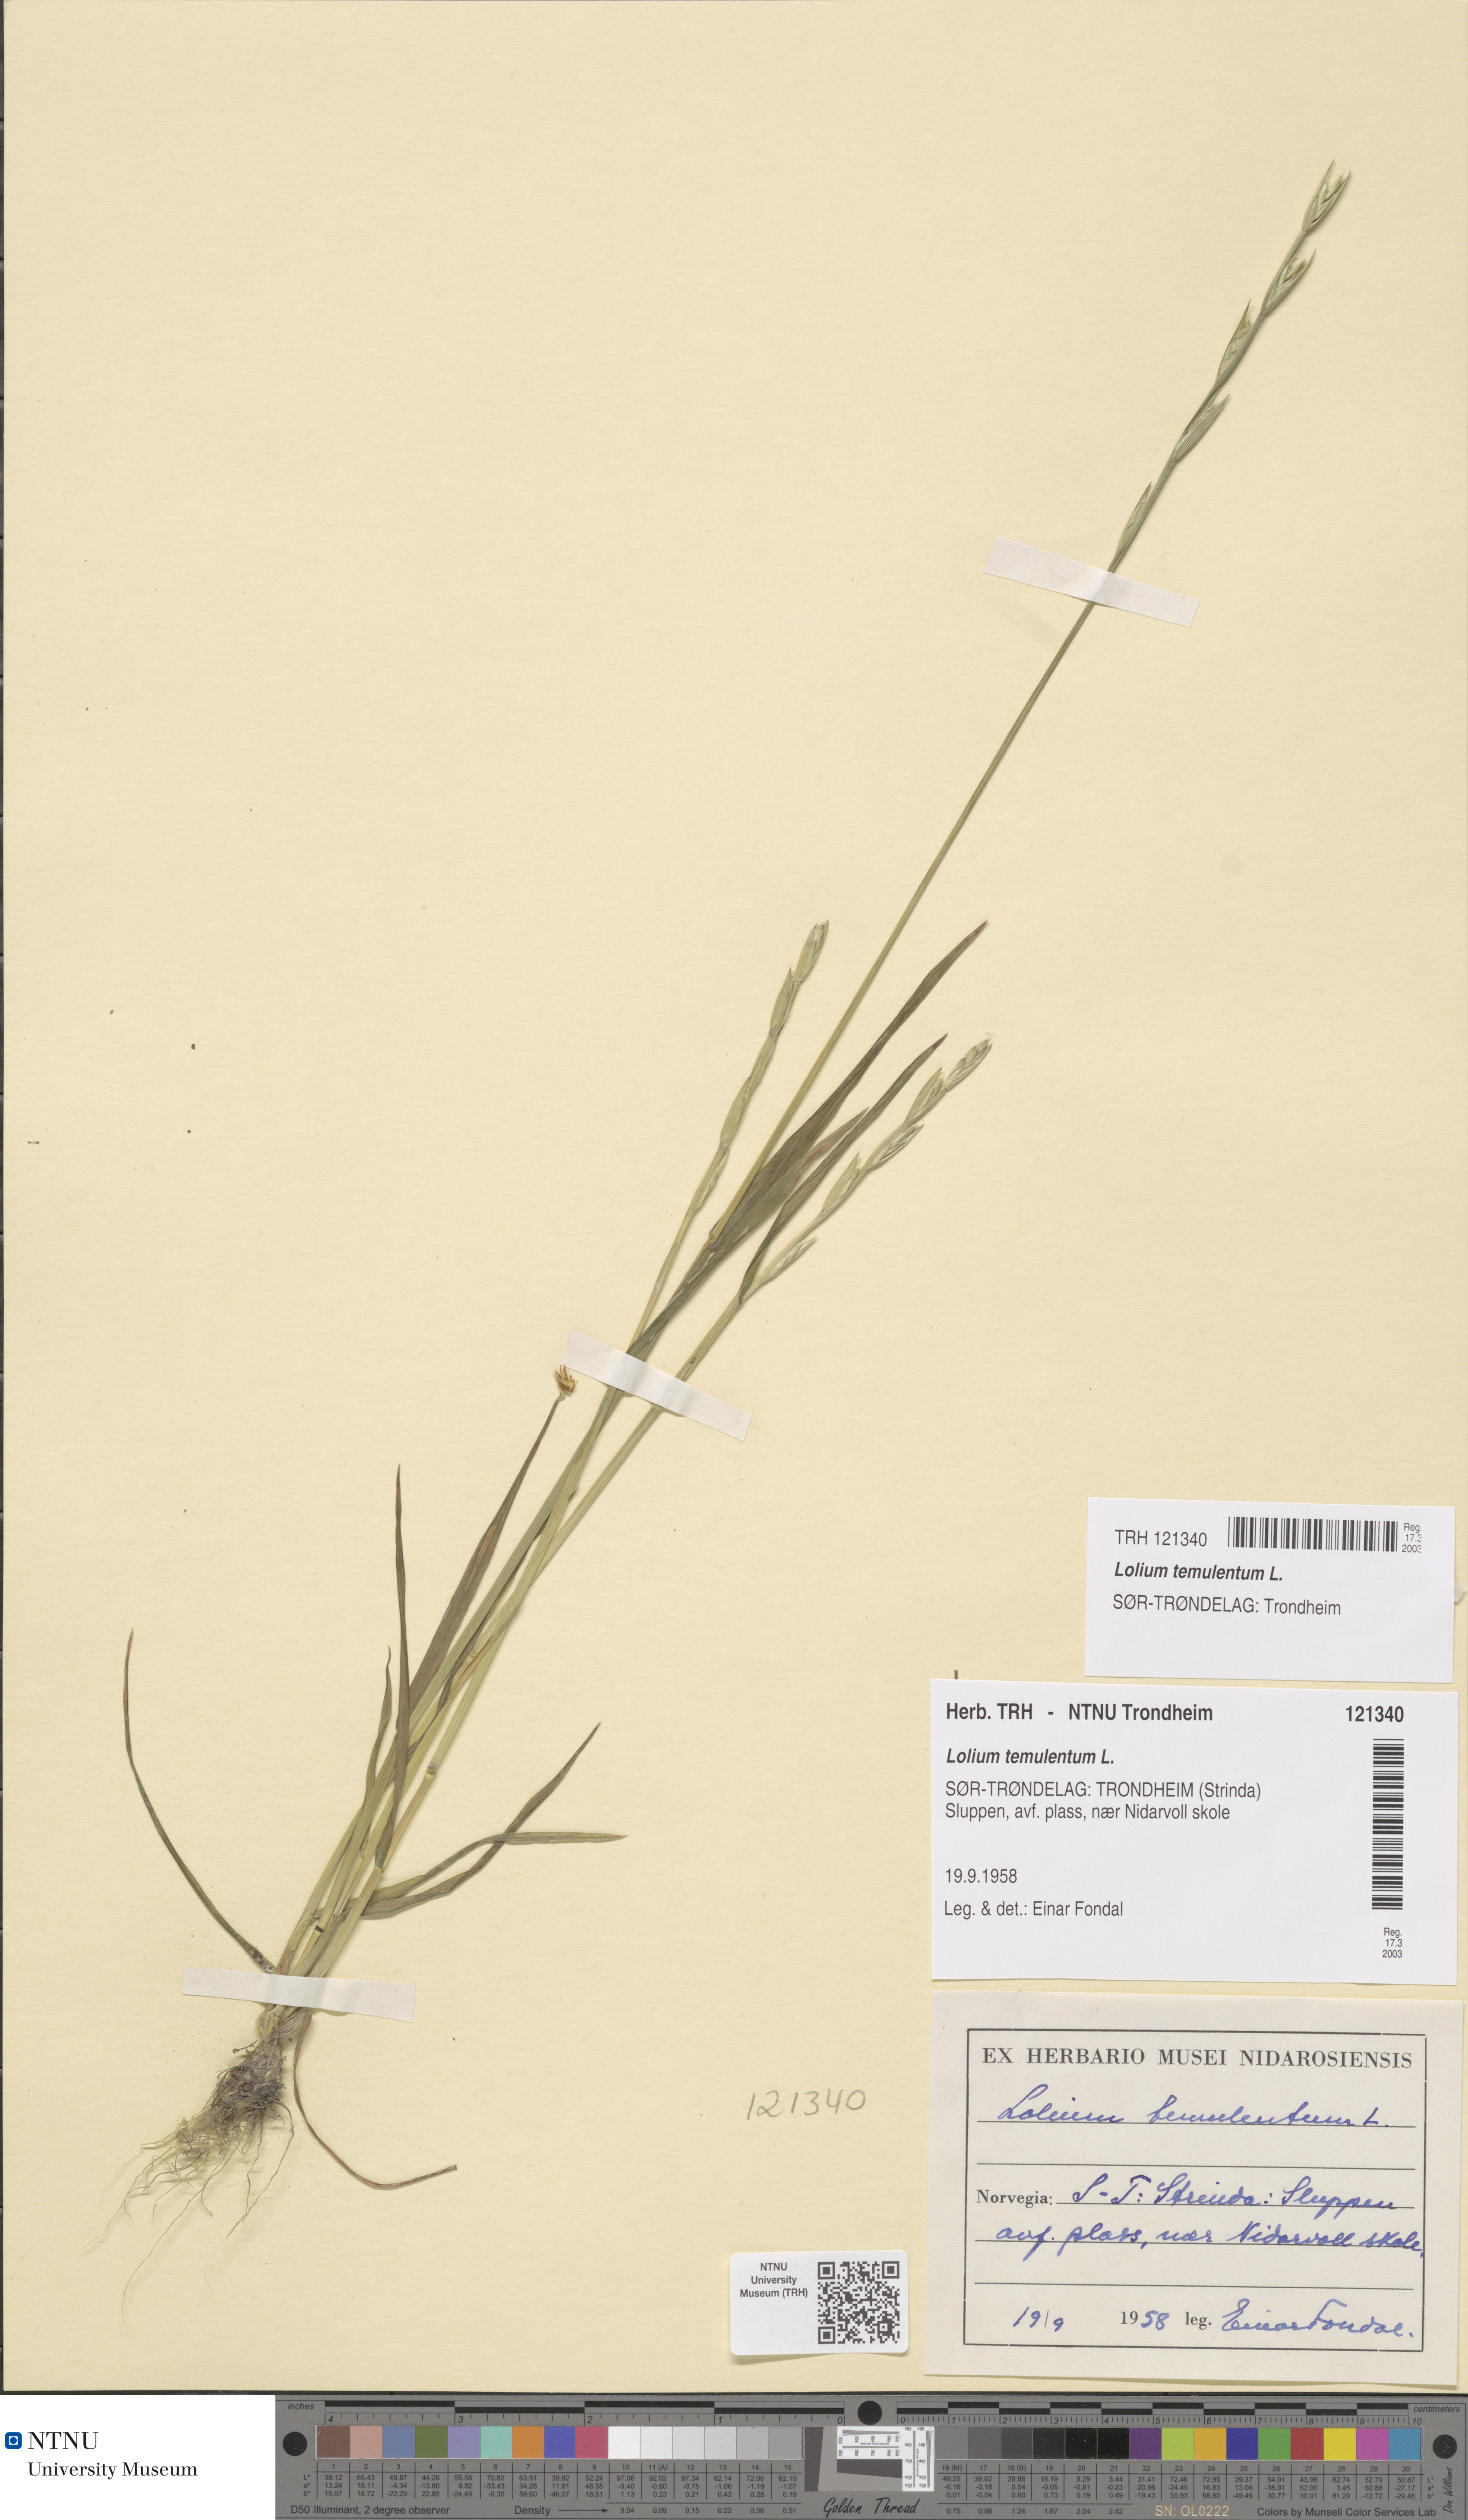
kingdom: Plantae
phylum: Tracheophyta
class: Liliopsida
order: Poales
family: Poaceae
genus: Lolium
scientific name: Lolium temulentum
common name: Darnel
